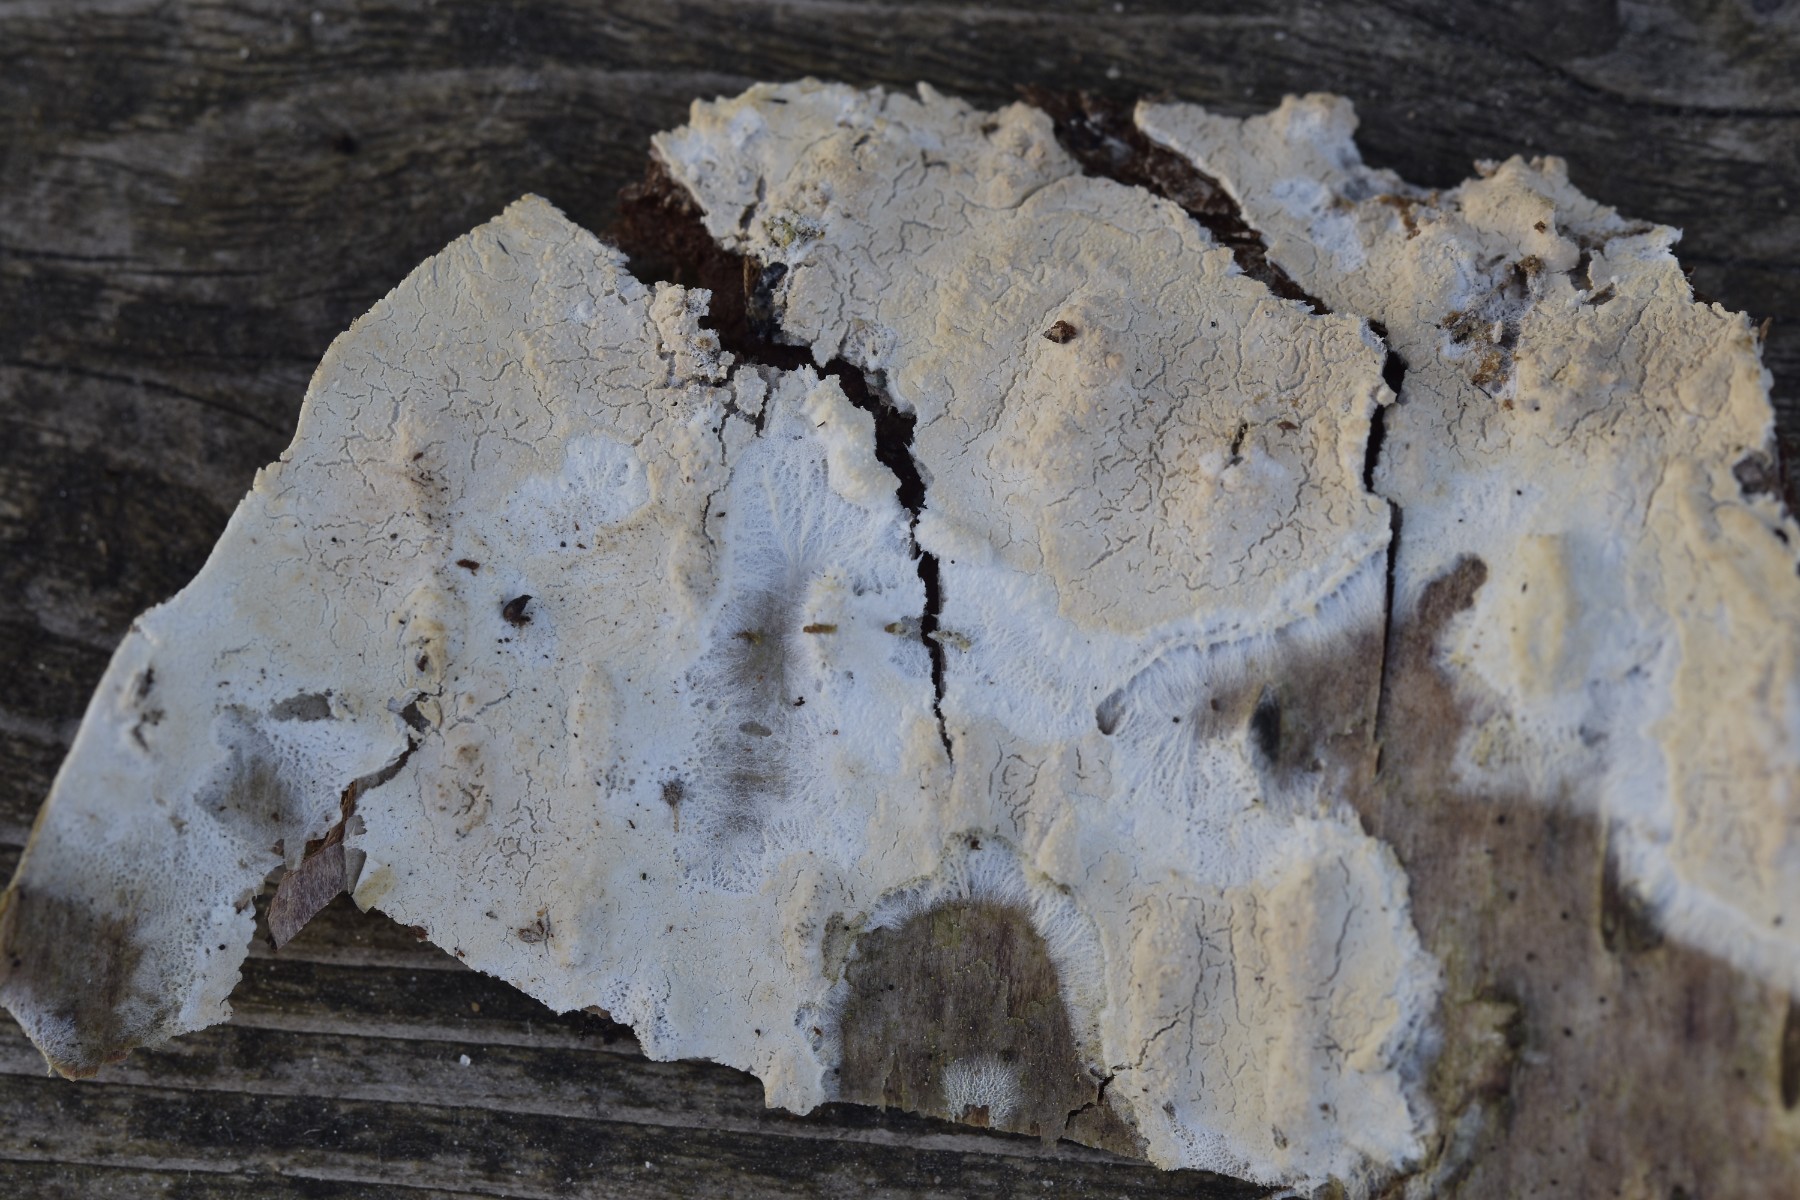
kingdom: Fungi
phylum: Basidiomycota
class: Agaricomycetes
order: Polyporales
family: Hyphodermataceae
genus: Hyphoderma
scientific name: Hyphoderma setigerum
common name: håret kalkskind
